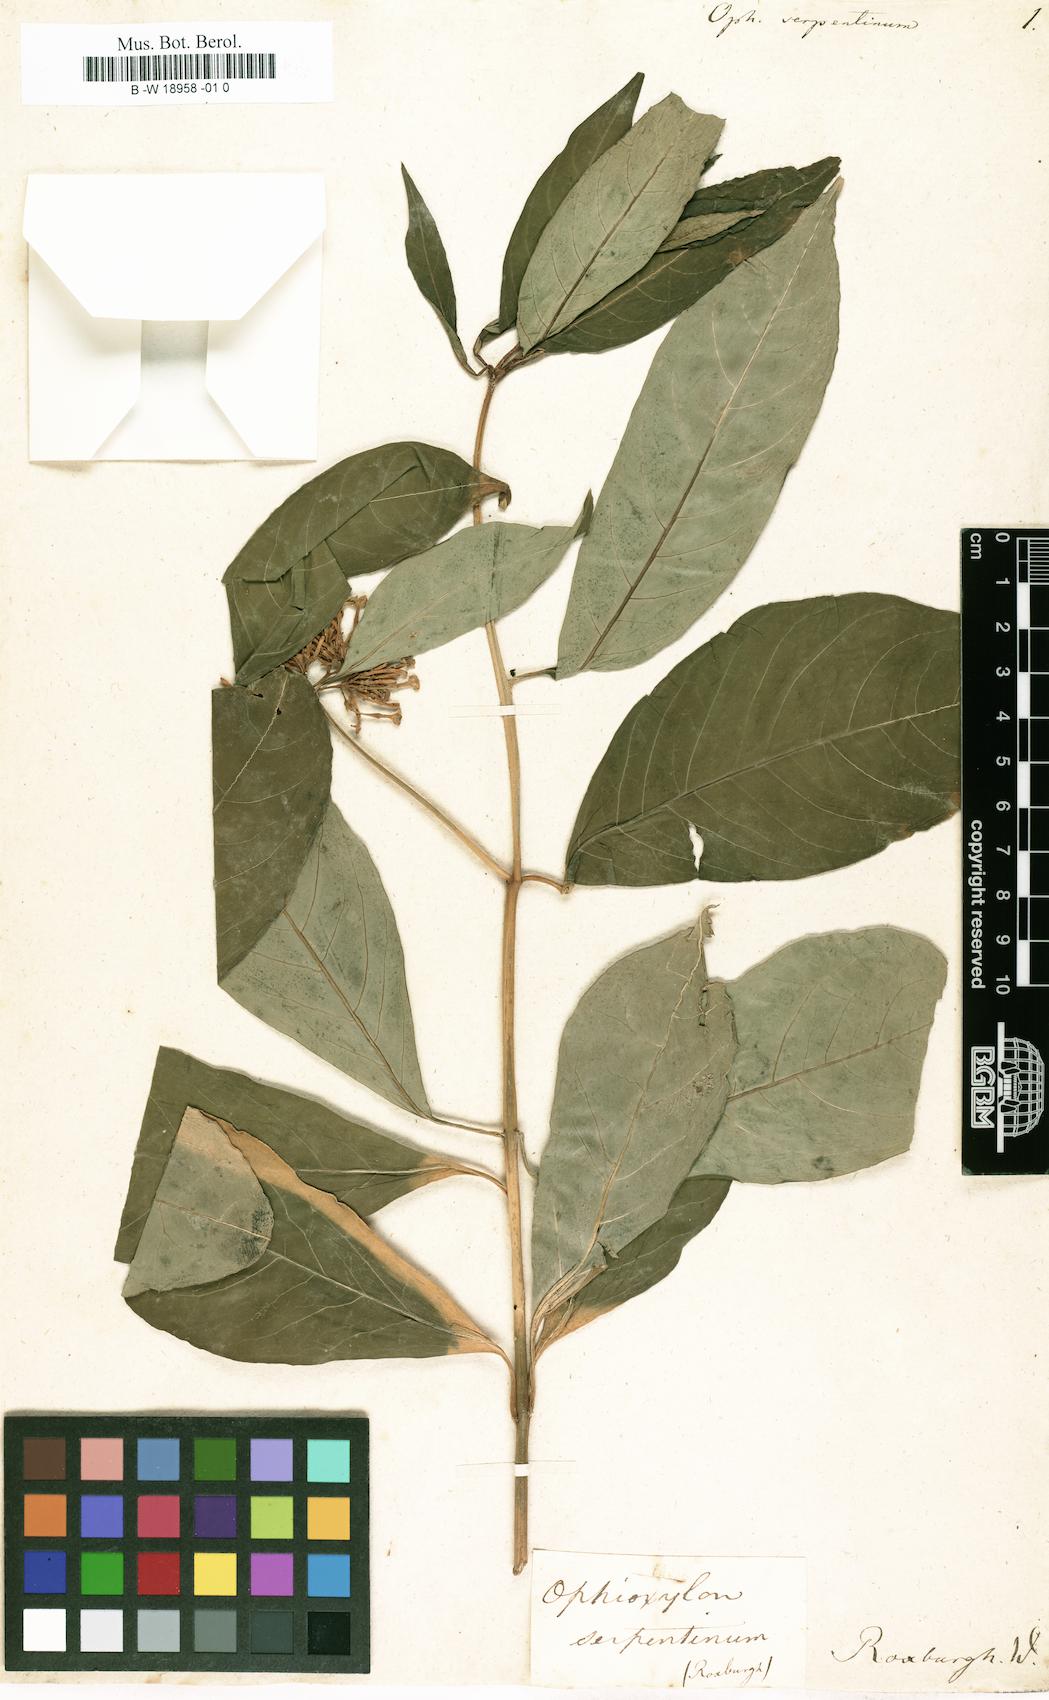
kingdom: Plantae
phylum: Tracheophyta
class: Magnoliopsida
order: Gentianales
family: Apocynaceae
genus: Rauvolfia
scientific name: Rauvolfia serpentina
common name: Ajmaline
